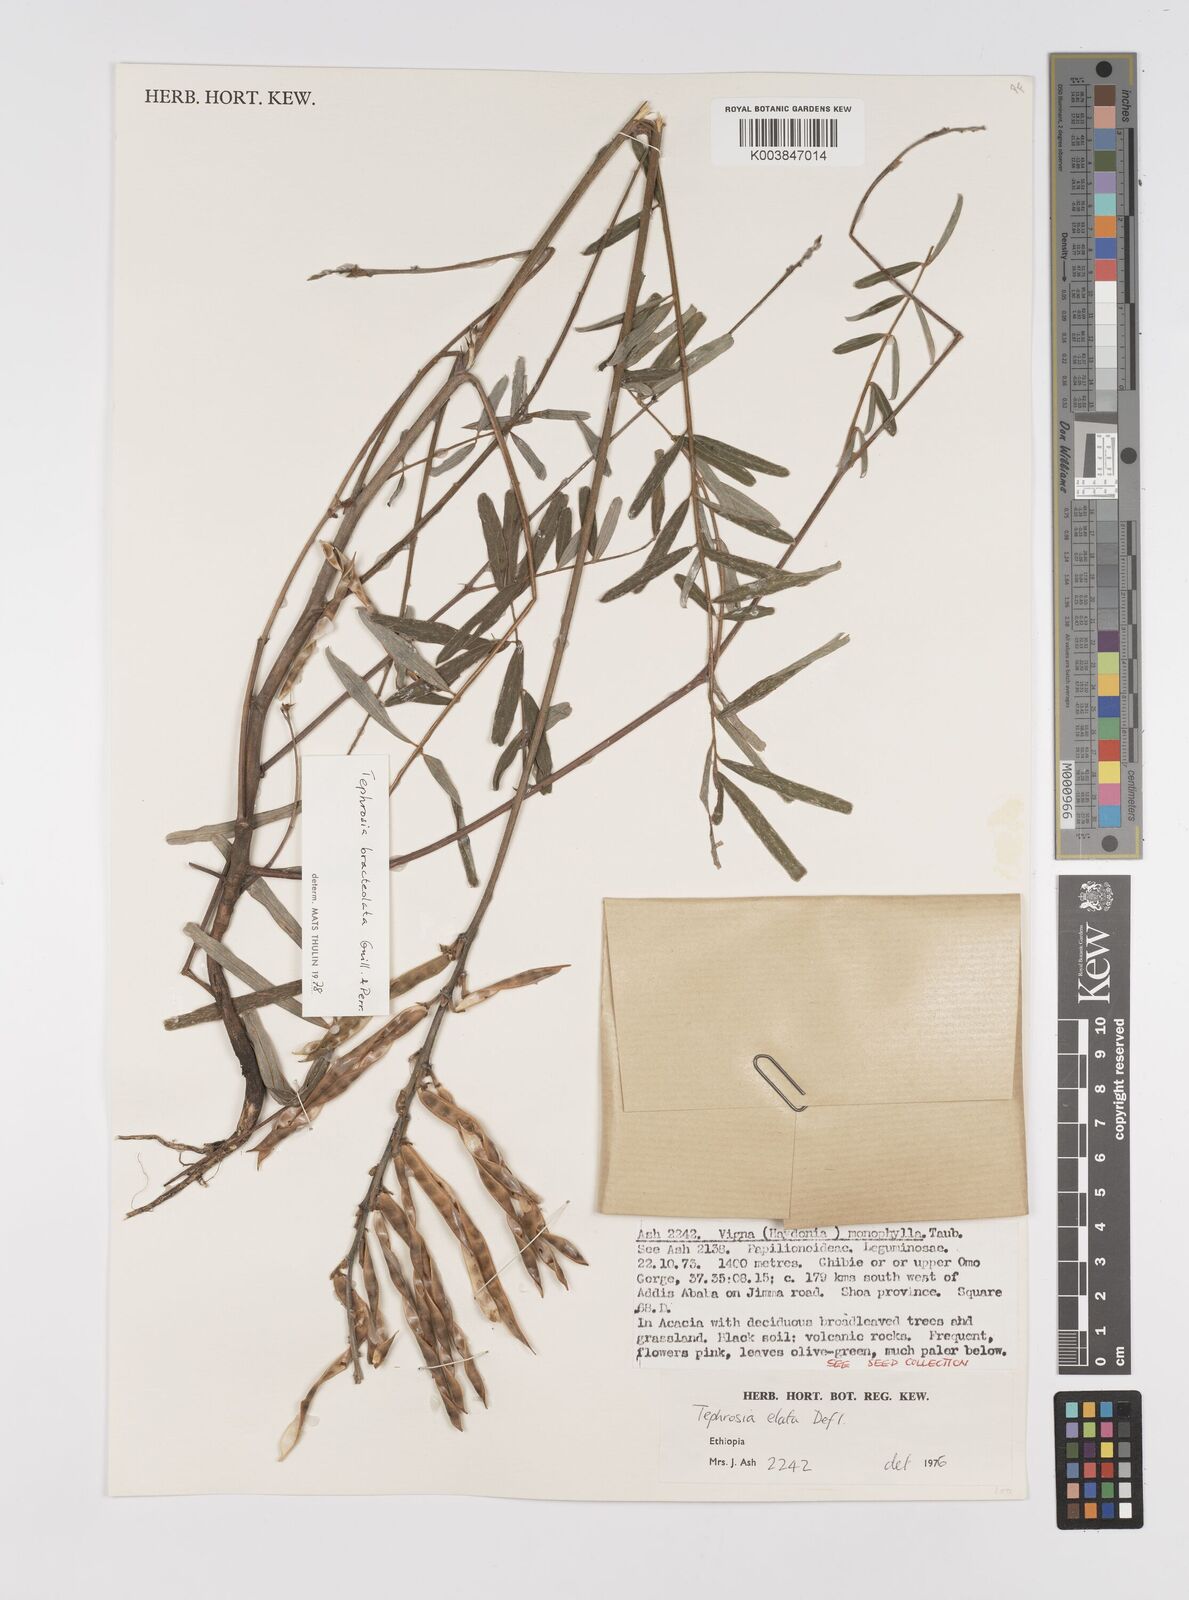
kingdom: Plantae
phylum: Tracheophyta
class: Magnoliopsida
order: Fabales
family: Fabaceae
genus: Tephrosia
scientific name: Tephrosia bracteolata
